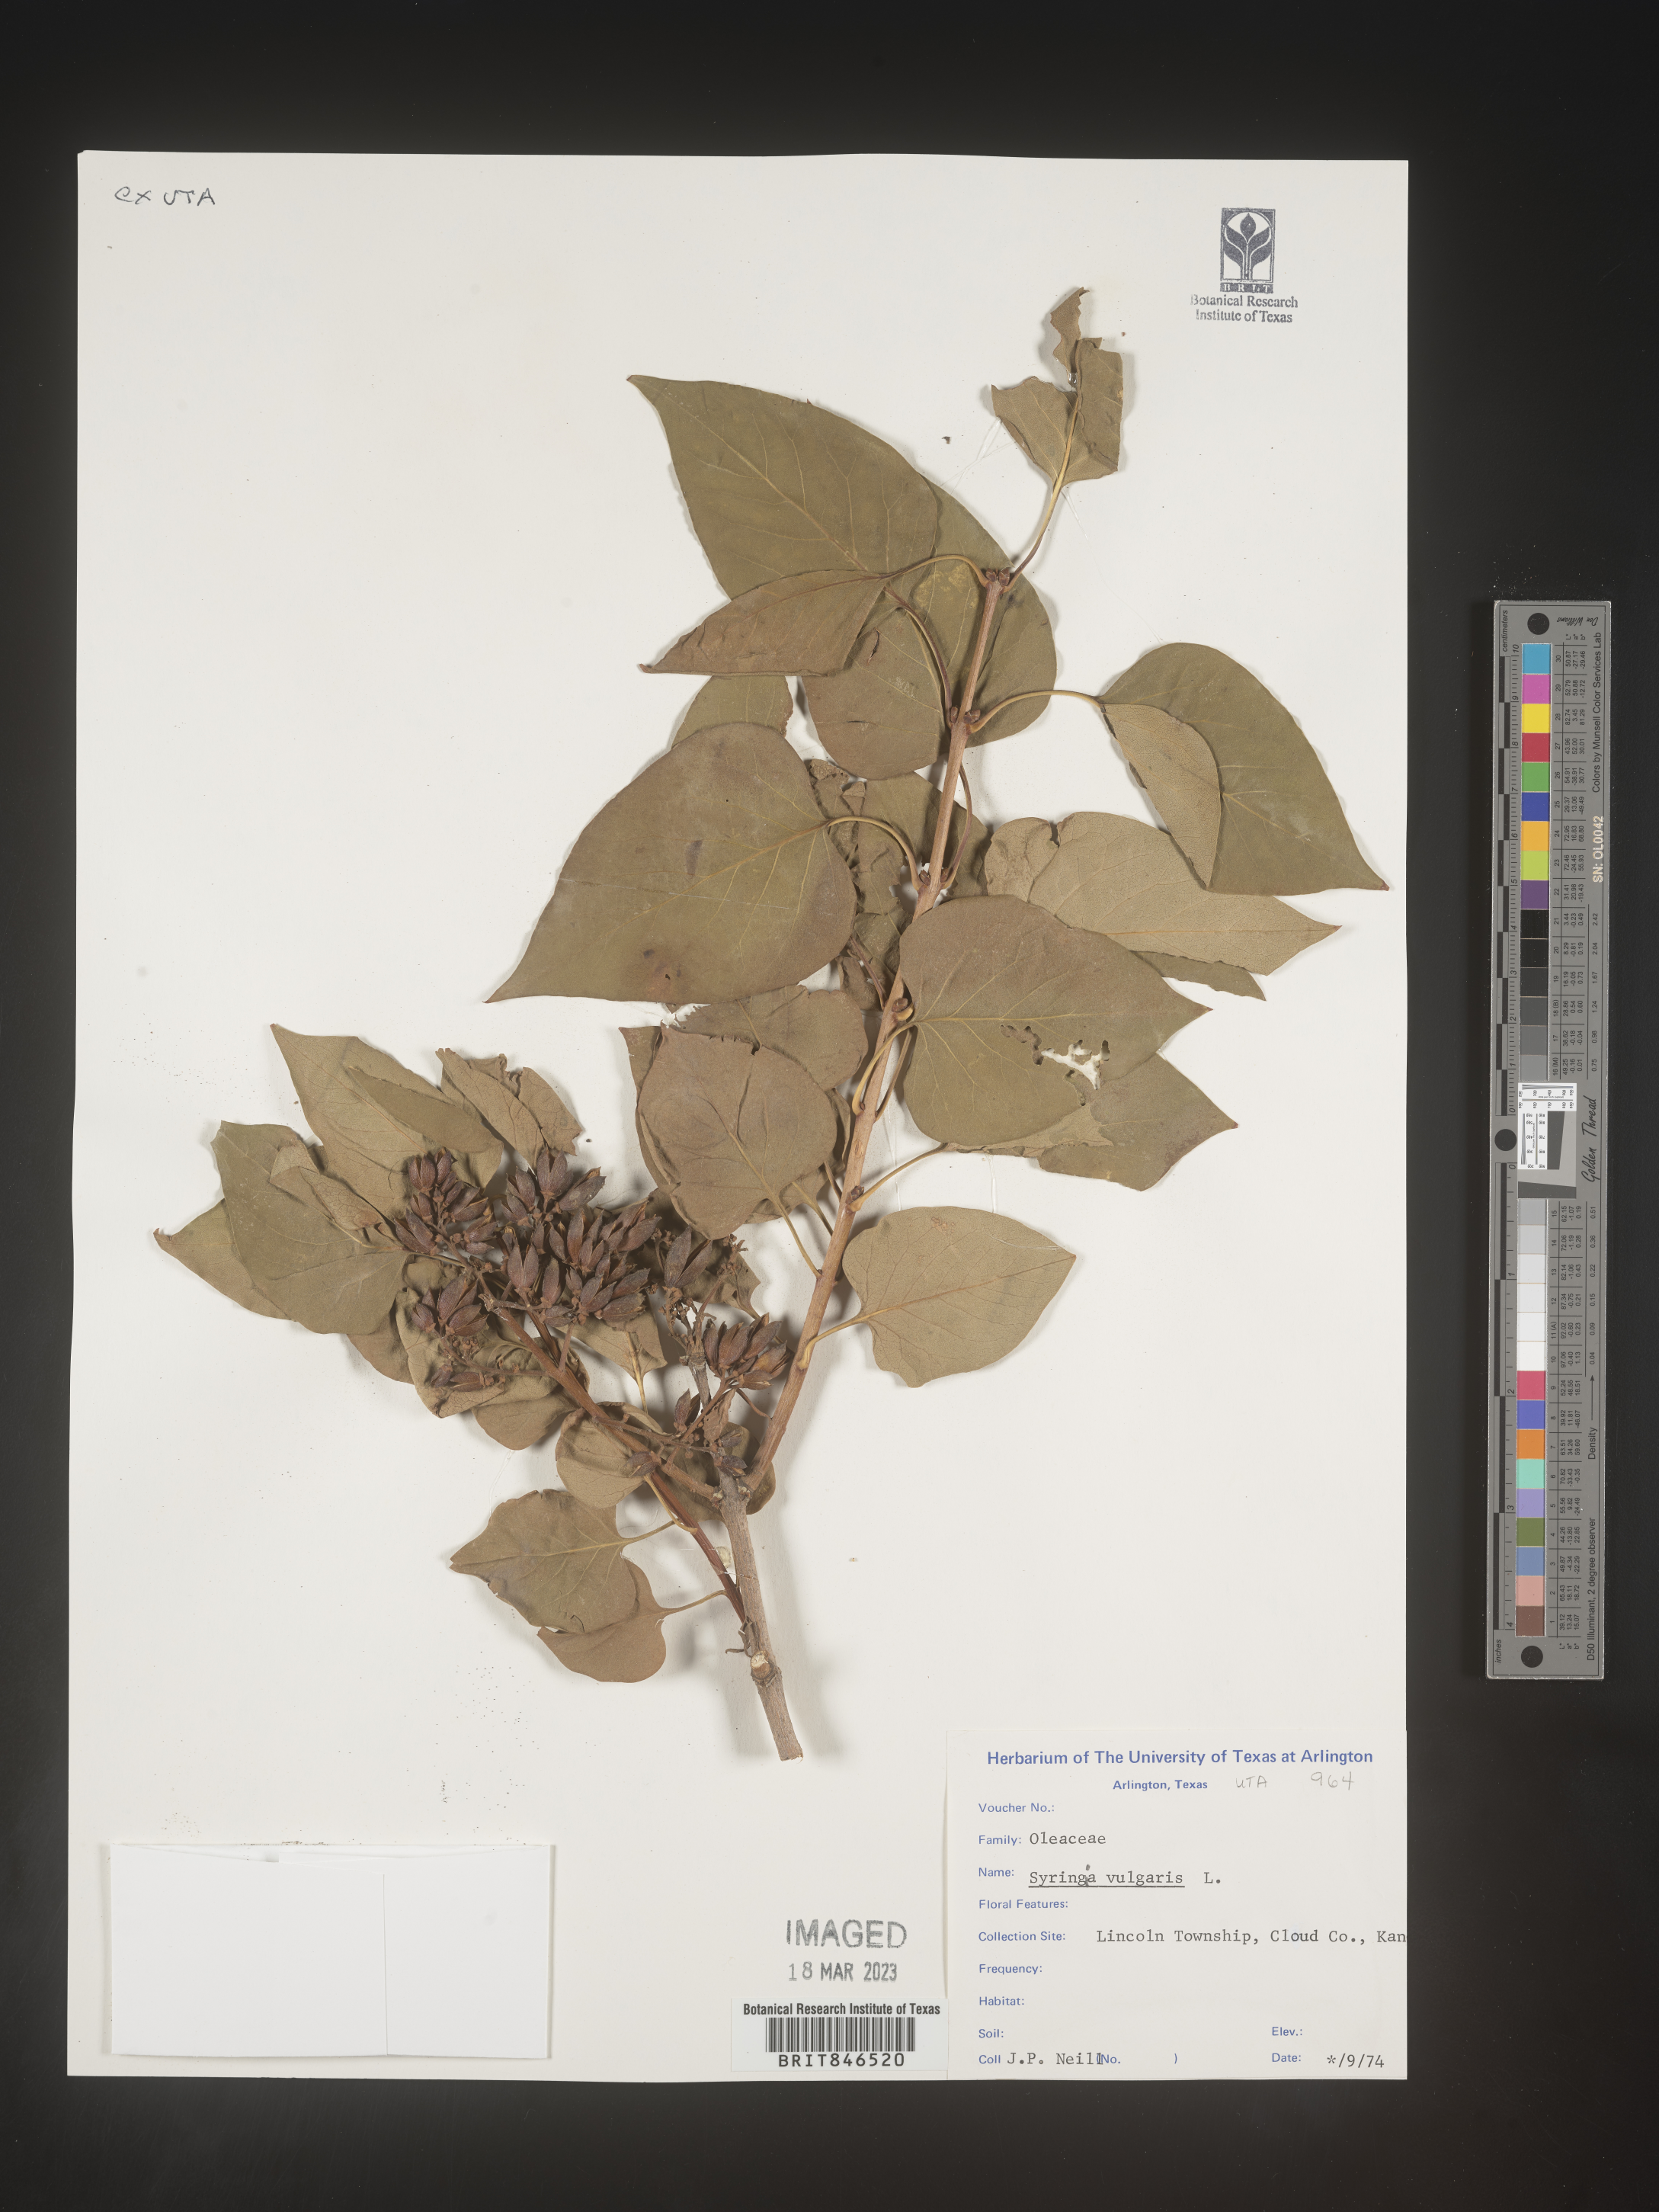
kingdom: Plantae
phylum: Tracheophyta
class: Magnoliopsida
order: Lamiales
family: Oleaceae
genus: Syringa
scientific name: Syringa
